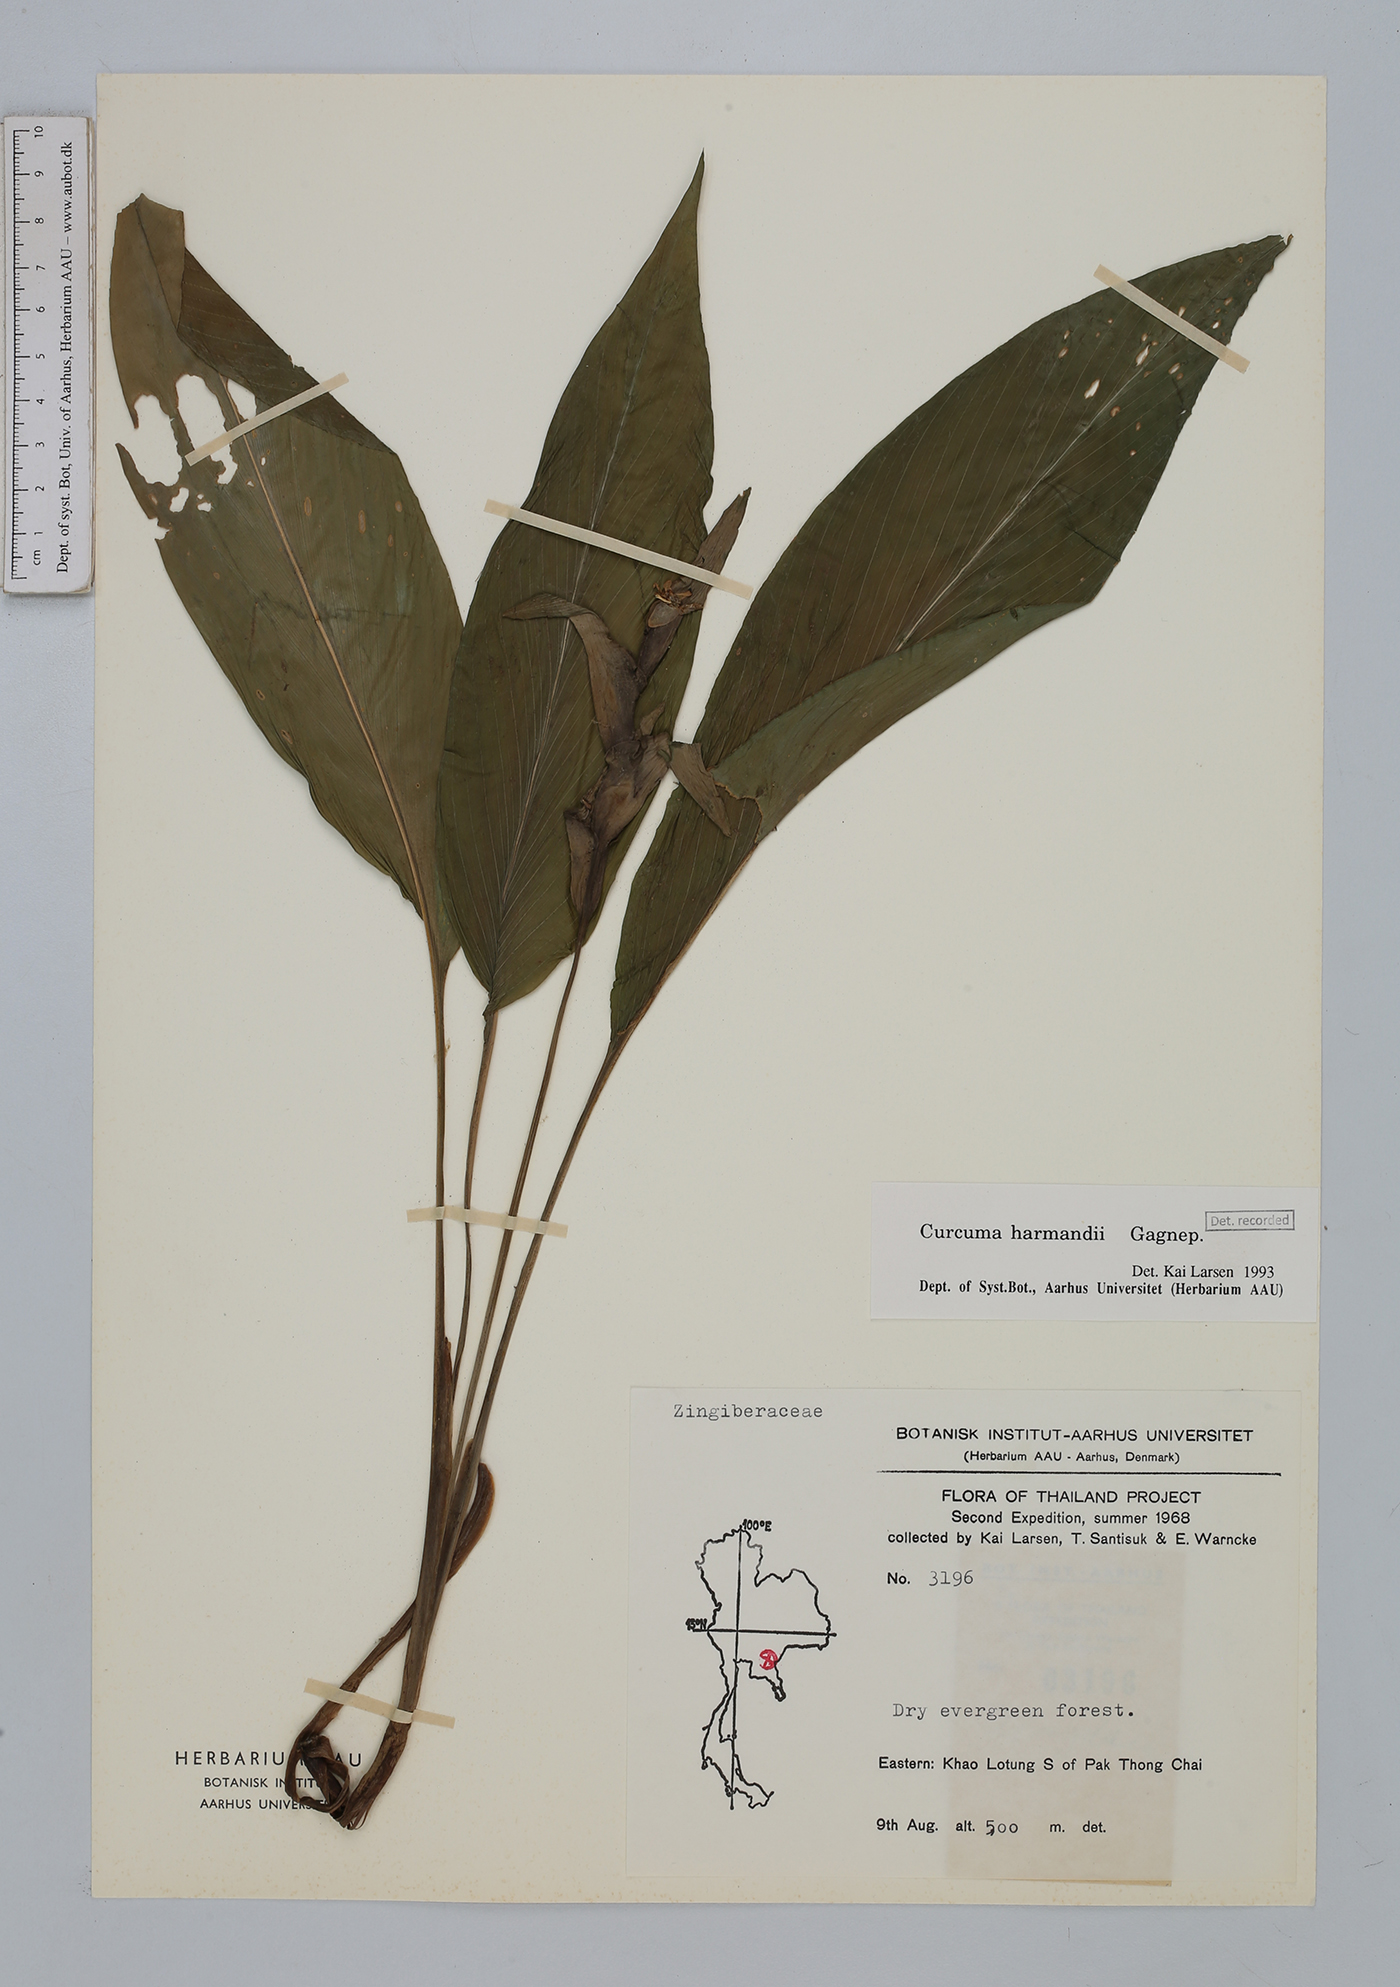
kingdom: Plantae
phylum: Tracheophyta
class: Liliopsida
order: Zingiberales
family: Zingiberaceae
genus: Curcuma
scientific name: Curcuma harmandii
